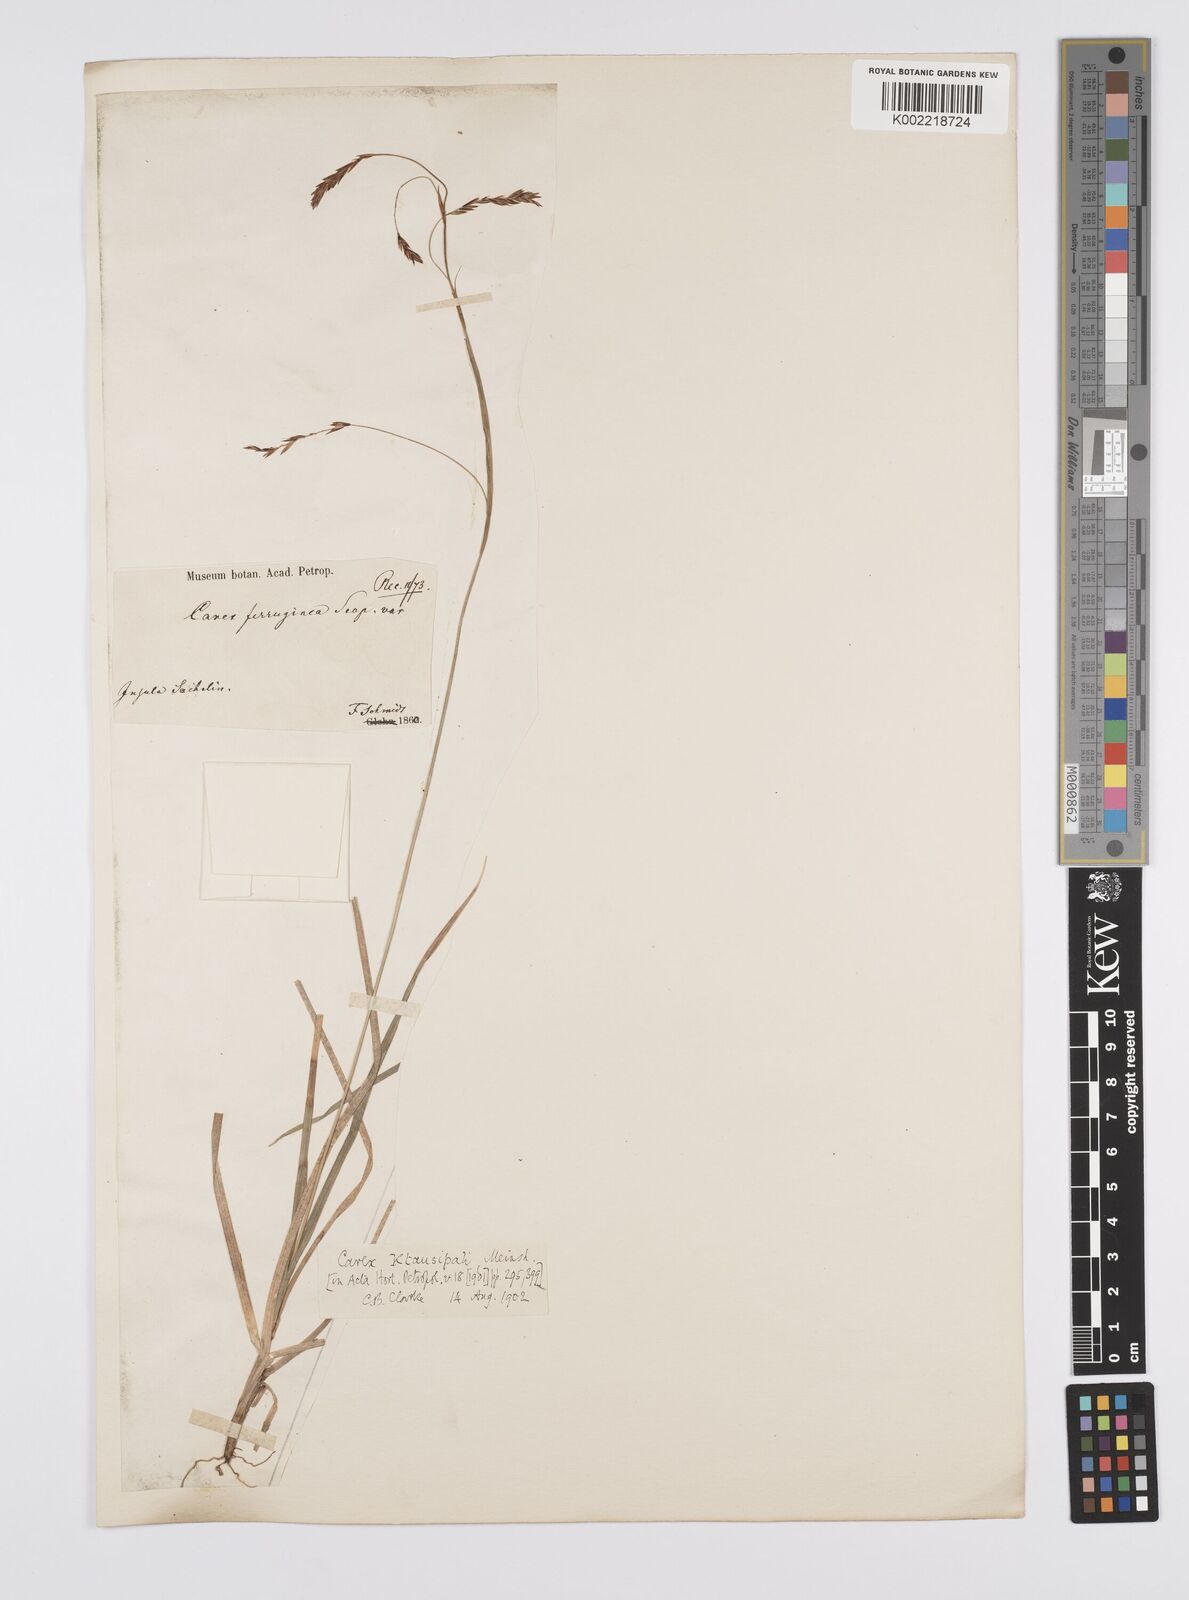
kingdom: Plantae
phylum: Tracheophyta
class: Liliopsida
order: Poales
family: Cyperaceae
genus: Carex
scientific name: Carex stenantha
